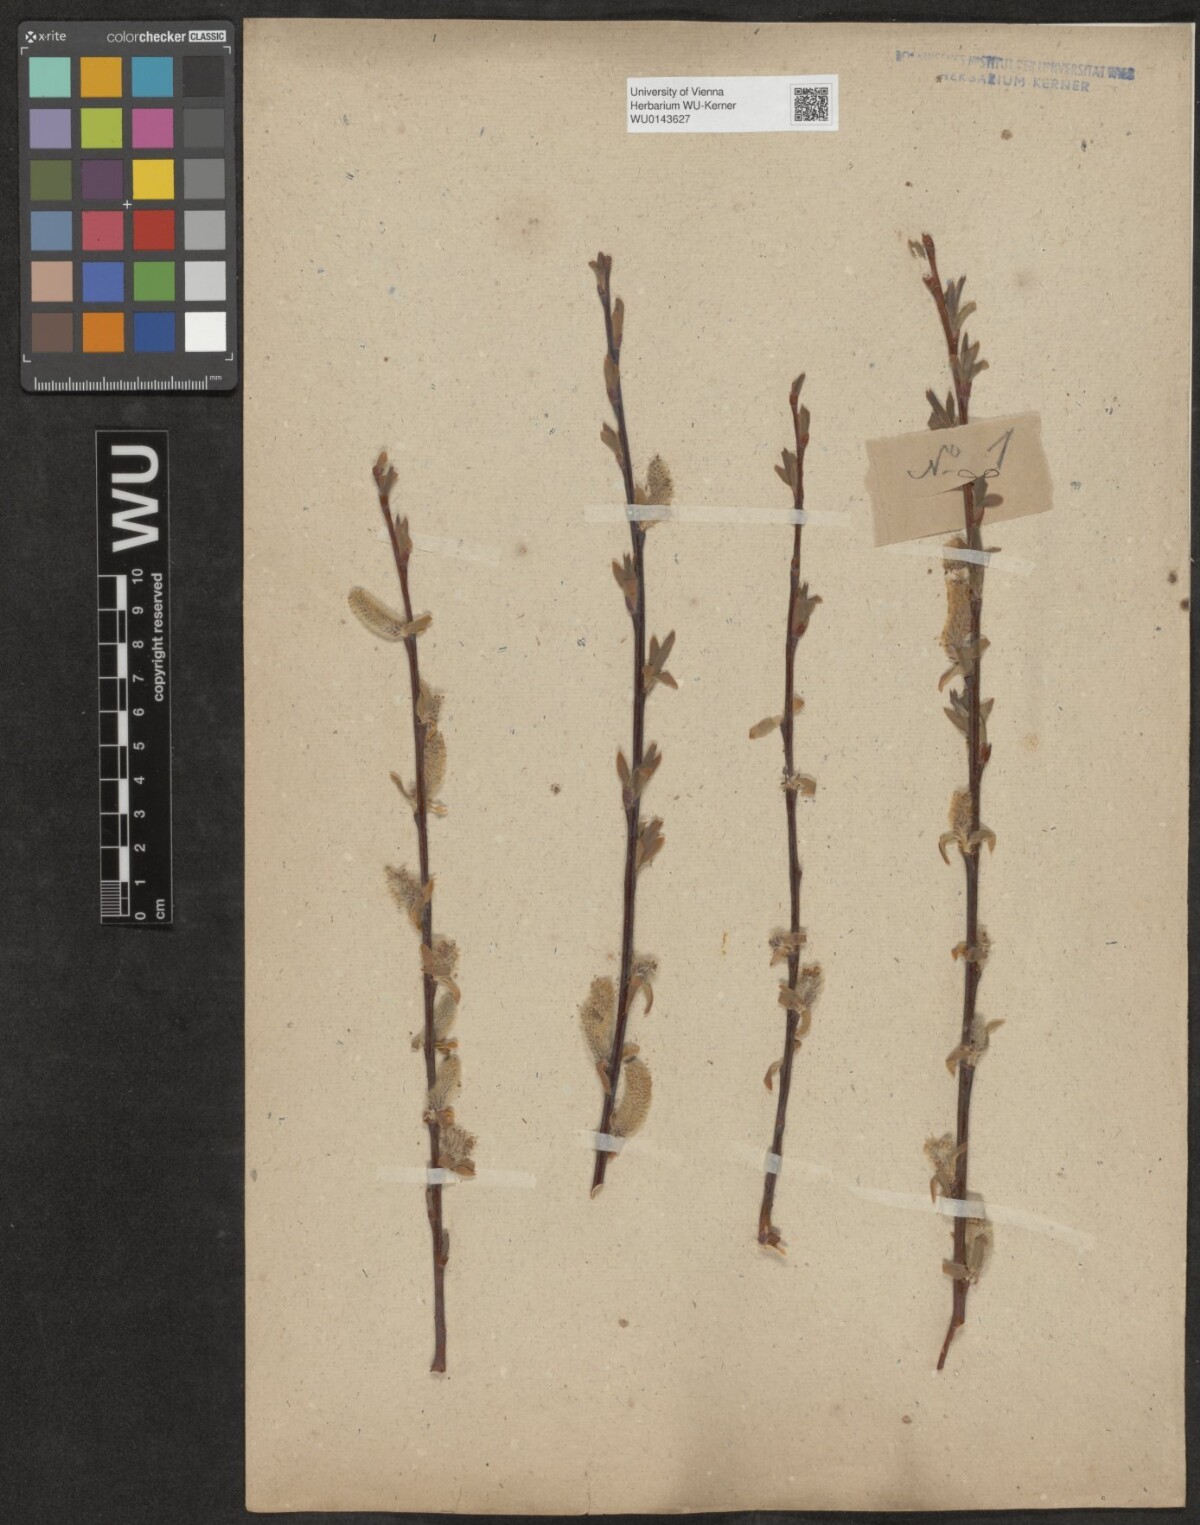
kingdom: Plantae
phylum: Tracheophyta
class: Magnoliopsida
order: Malpighiales
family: Salicaceae
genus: Salix
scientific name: Salix
